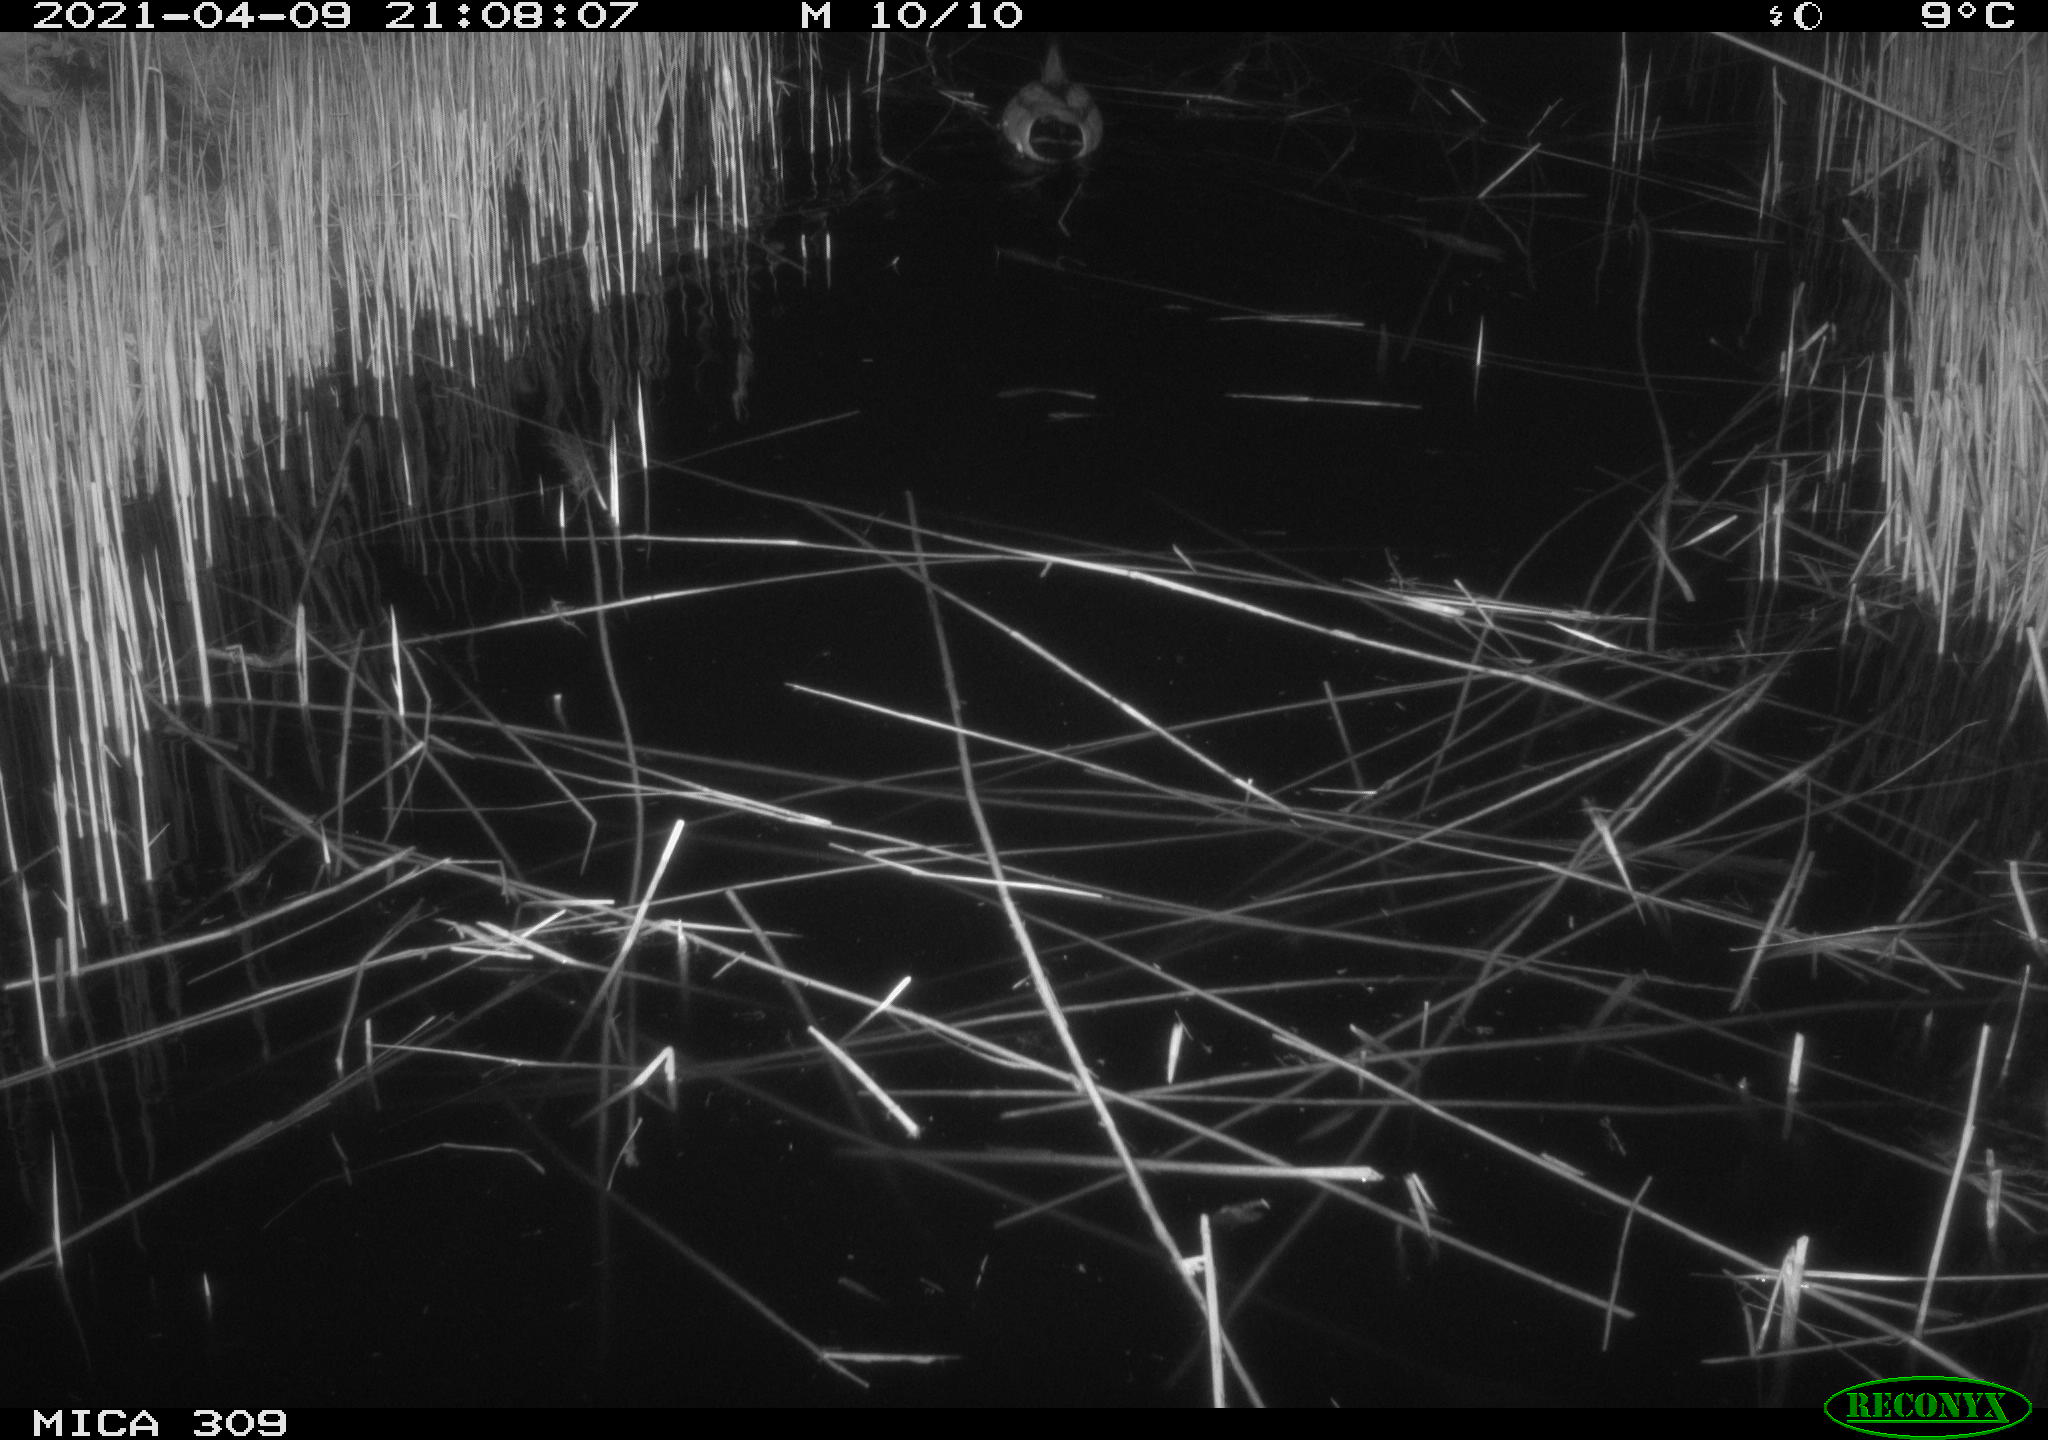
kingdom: Animalia
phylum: Chordata
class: Aves
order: Anseriformes
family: Anatidae
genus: Anas
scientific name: Anas platyrhynchos
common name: Mallard
